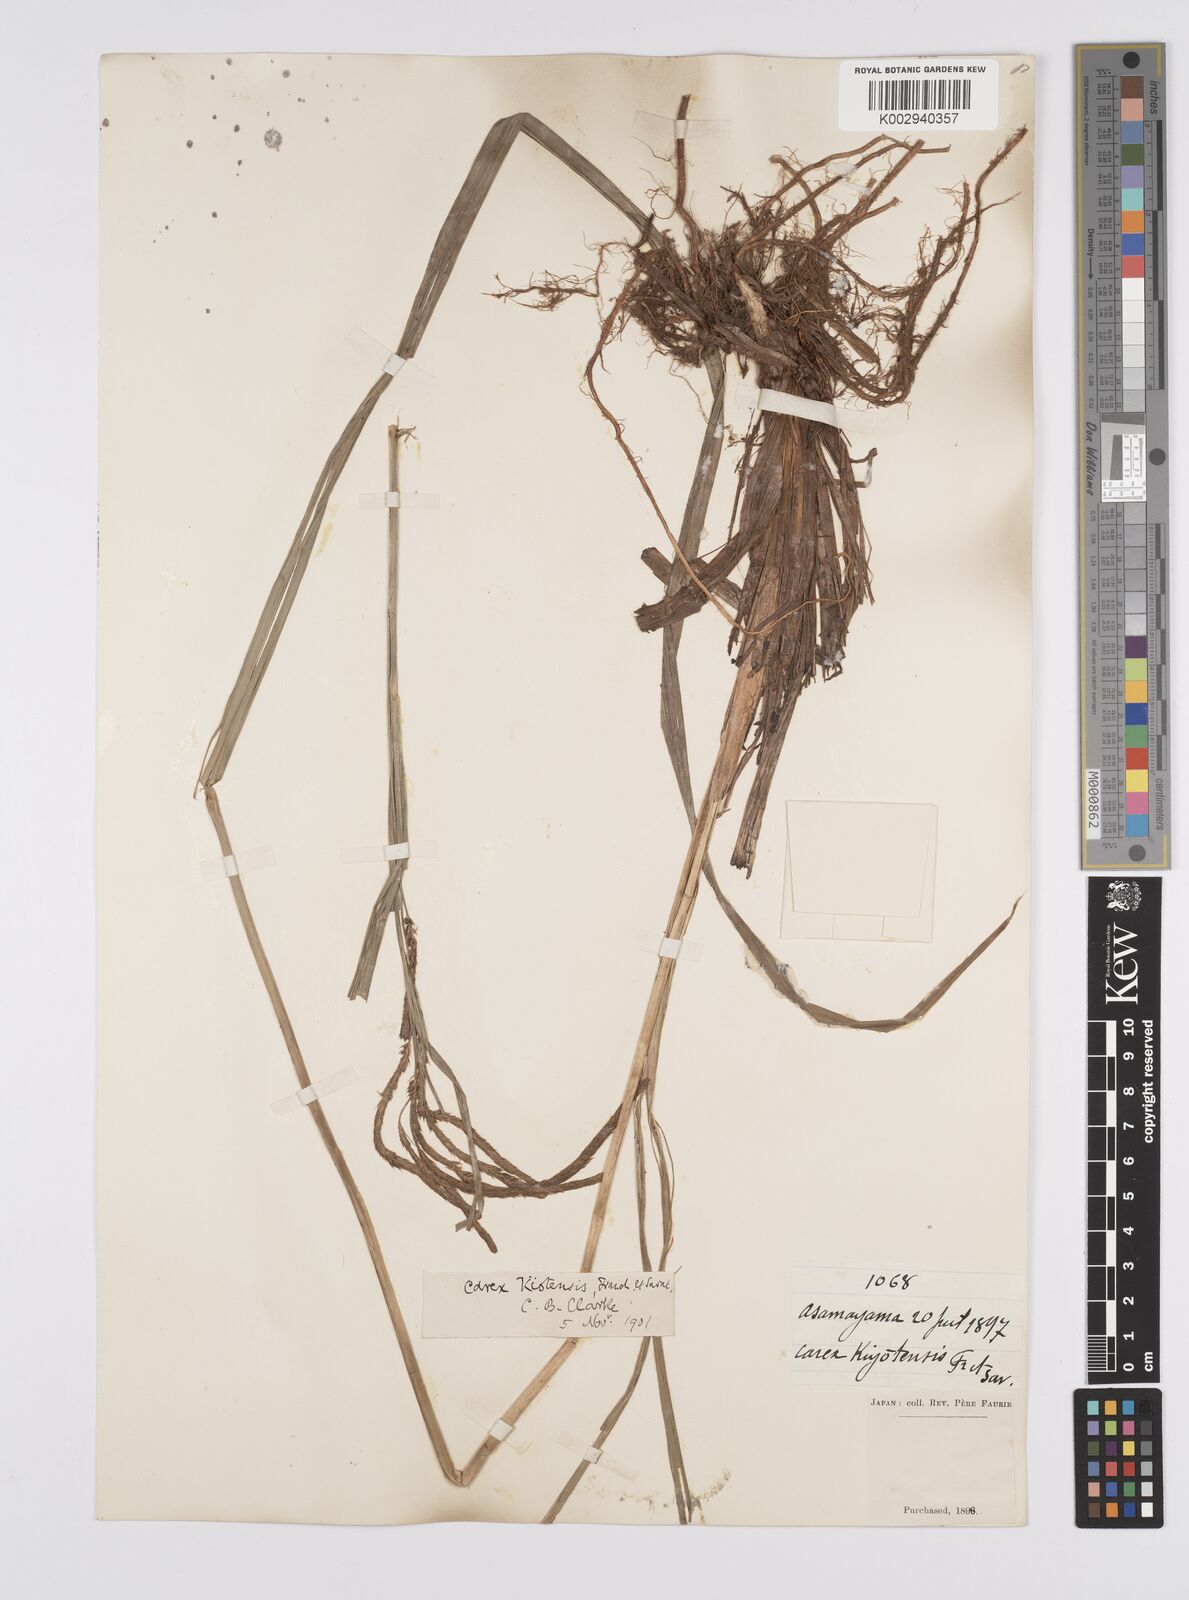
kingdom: Plantae
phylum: Tracheophyta
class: Liliopsida
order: Poales
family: Cyperaceae
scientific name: Cyperaceae
